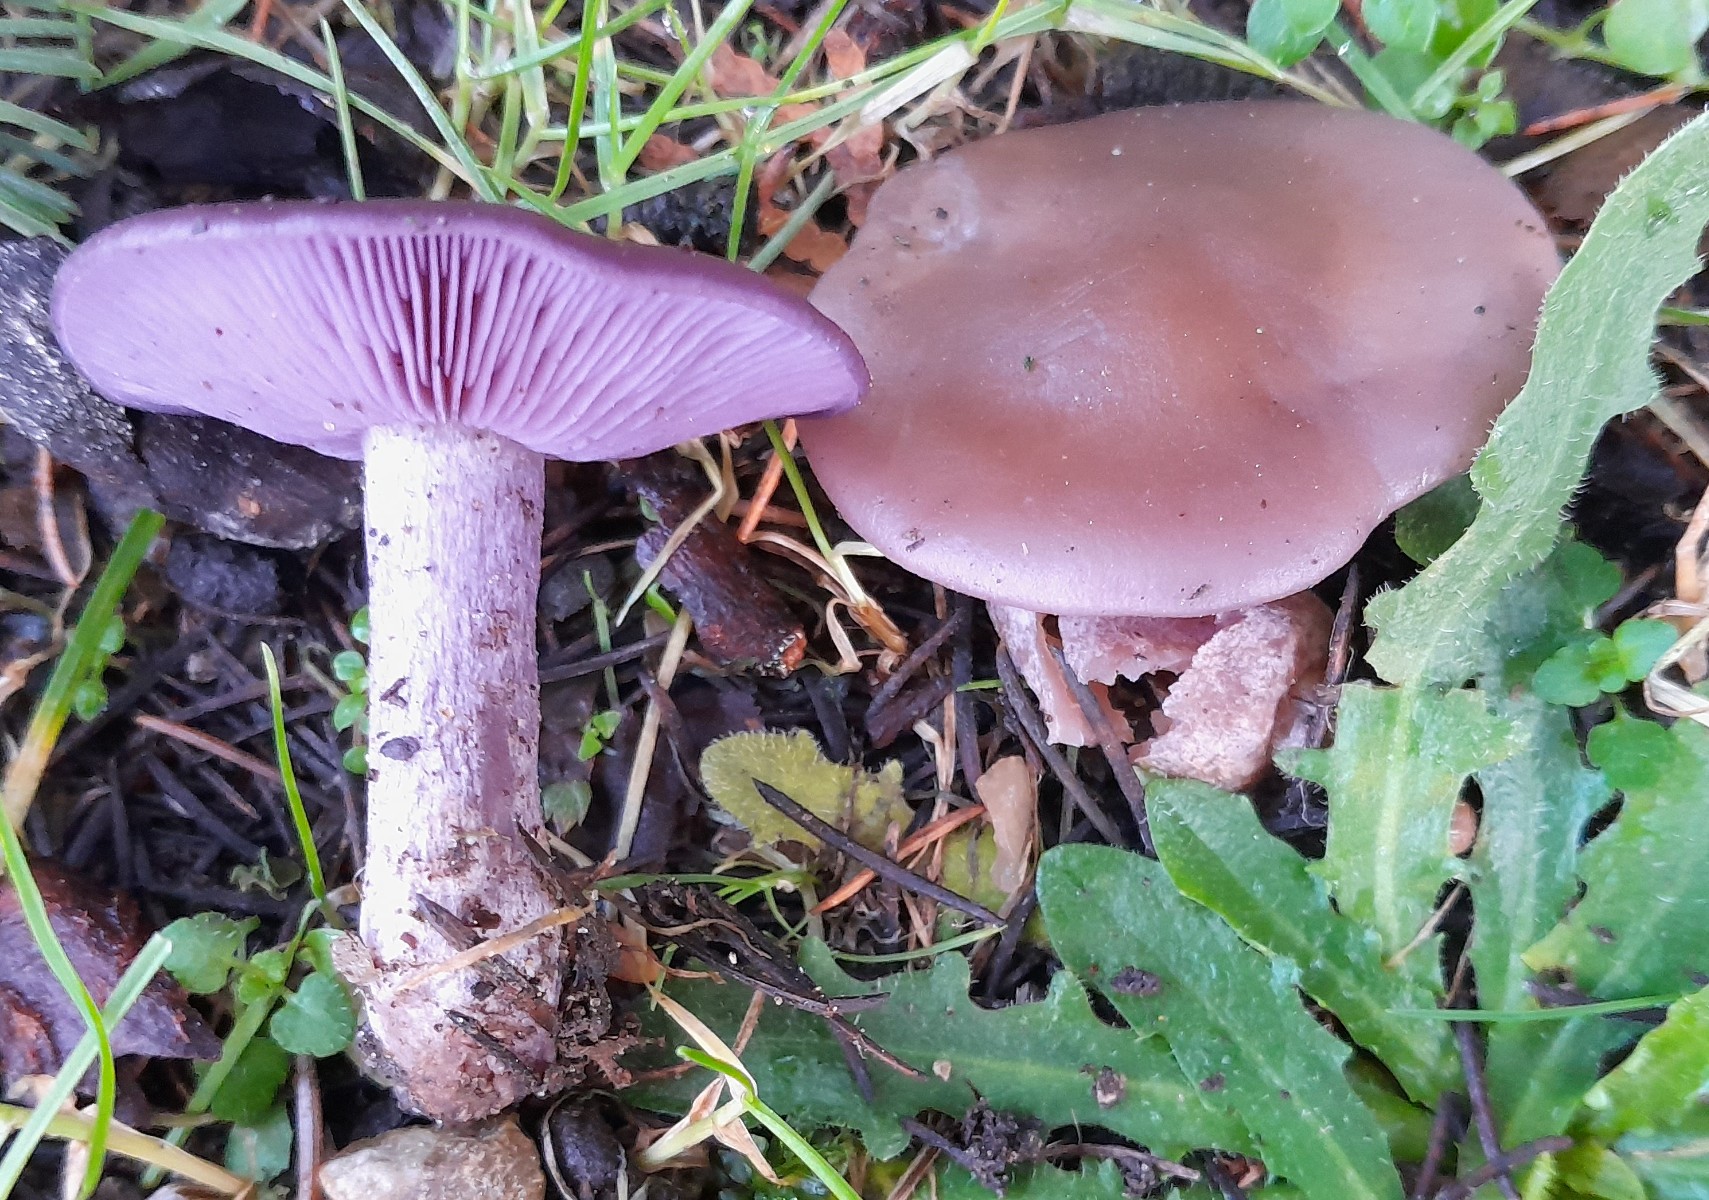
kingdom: Fungi
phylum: Basidiomycota
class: Agaricomycetes
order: Agaricales
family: Tricholomataceae
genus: Lepista
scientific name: Lepista lilacea
